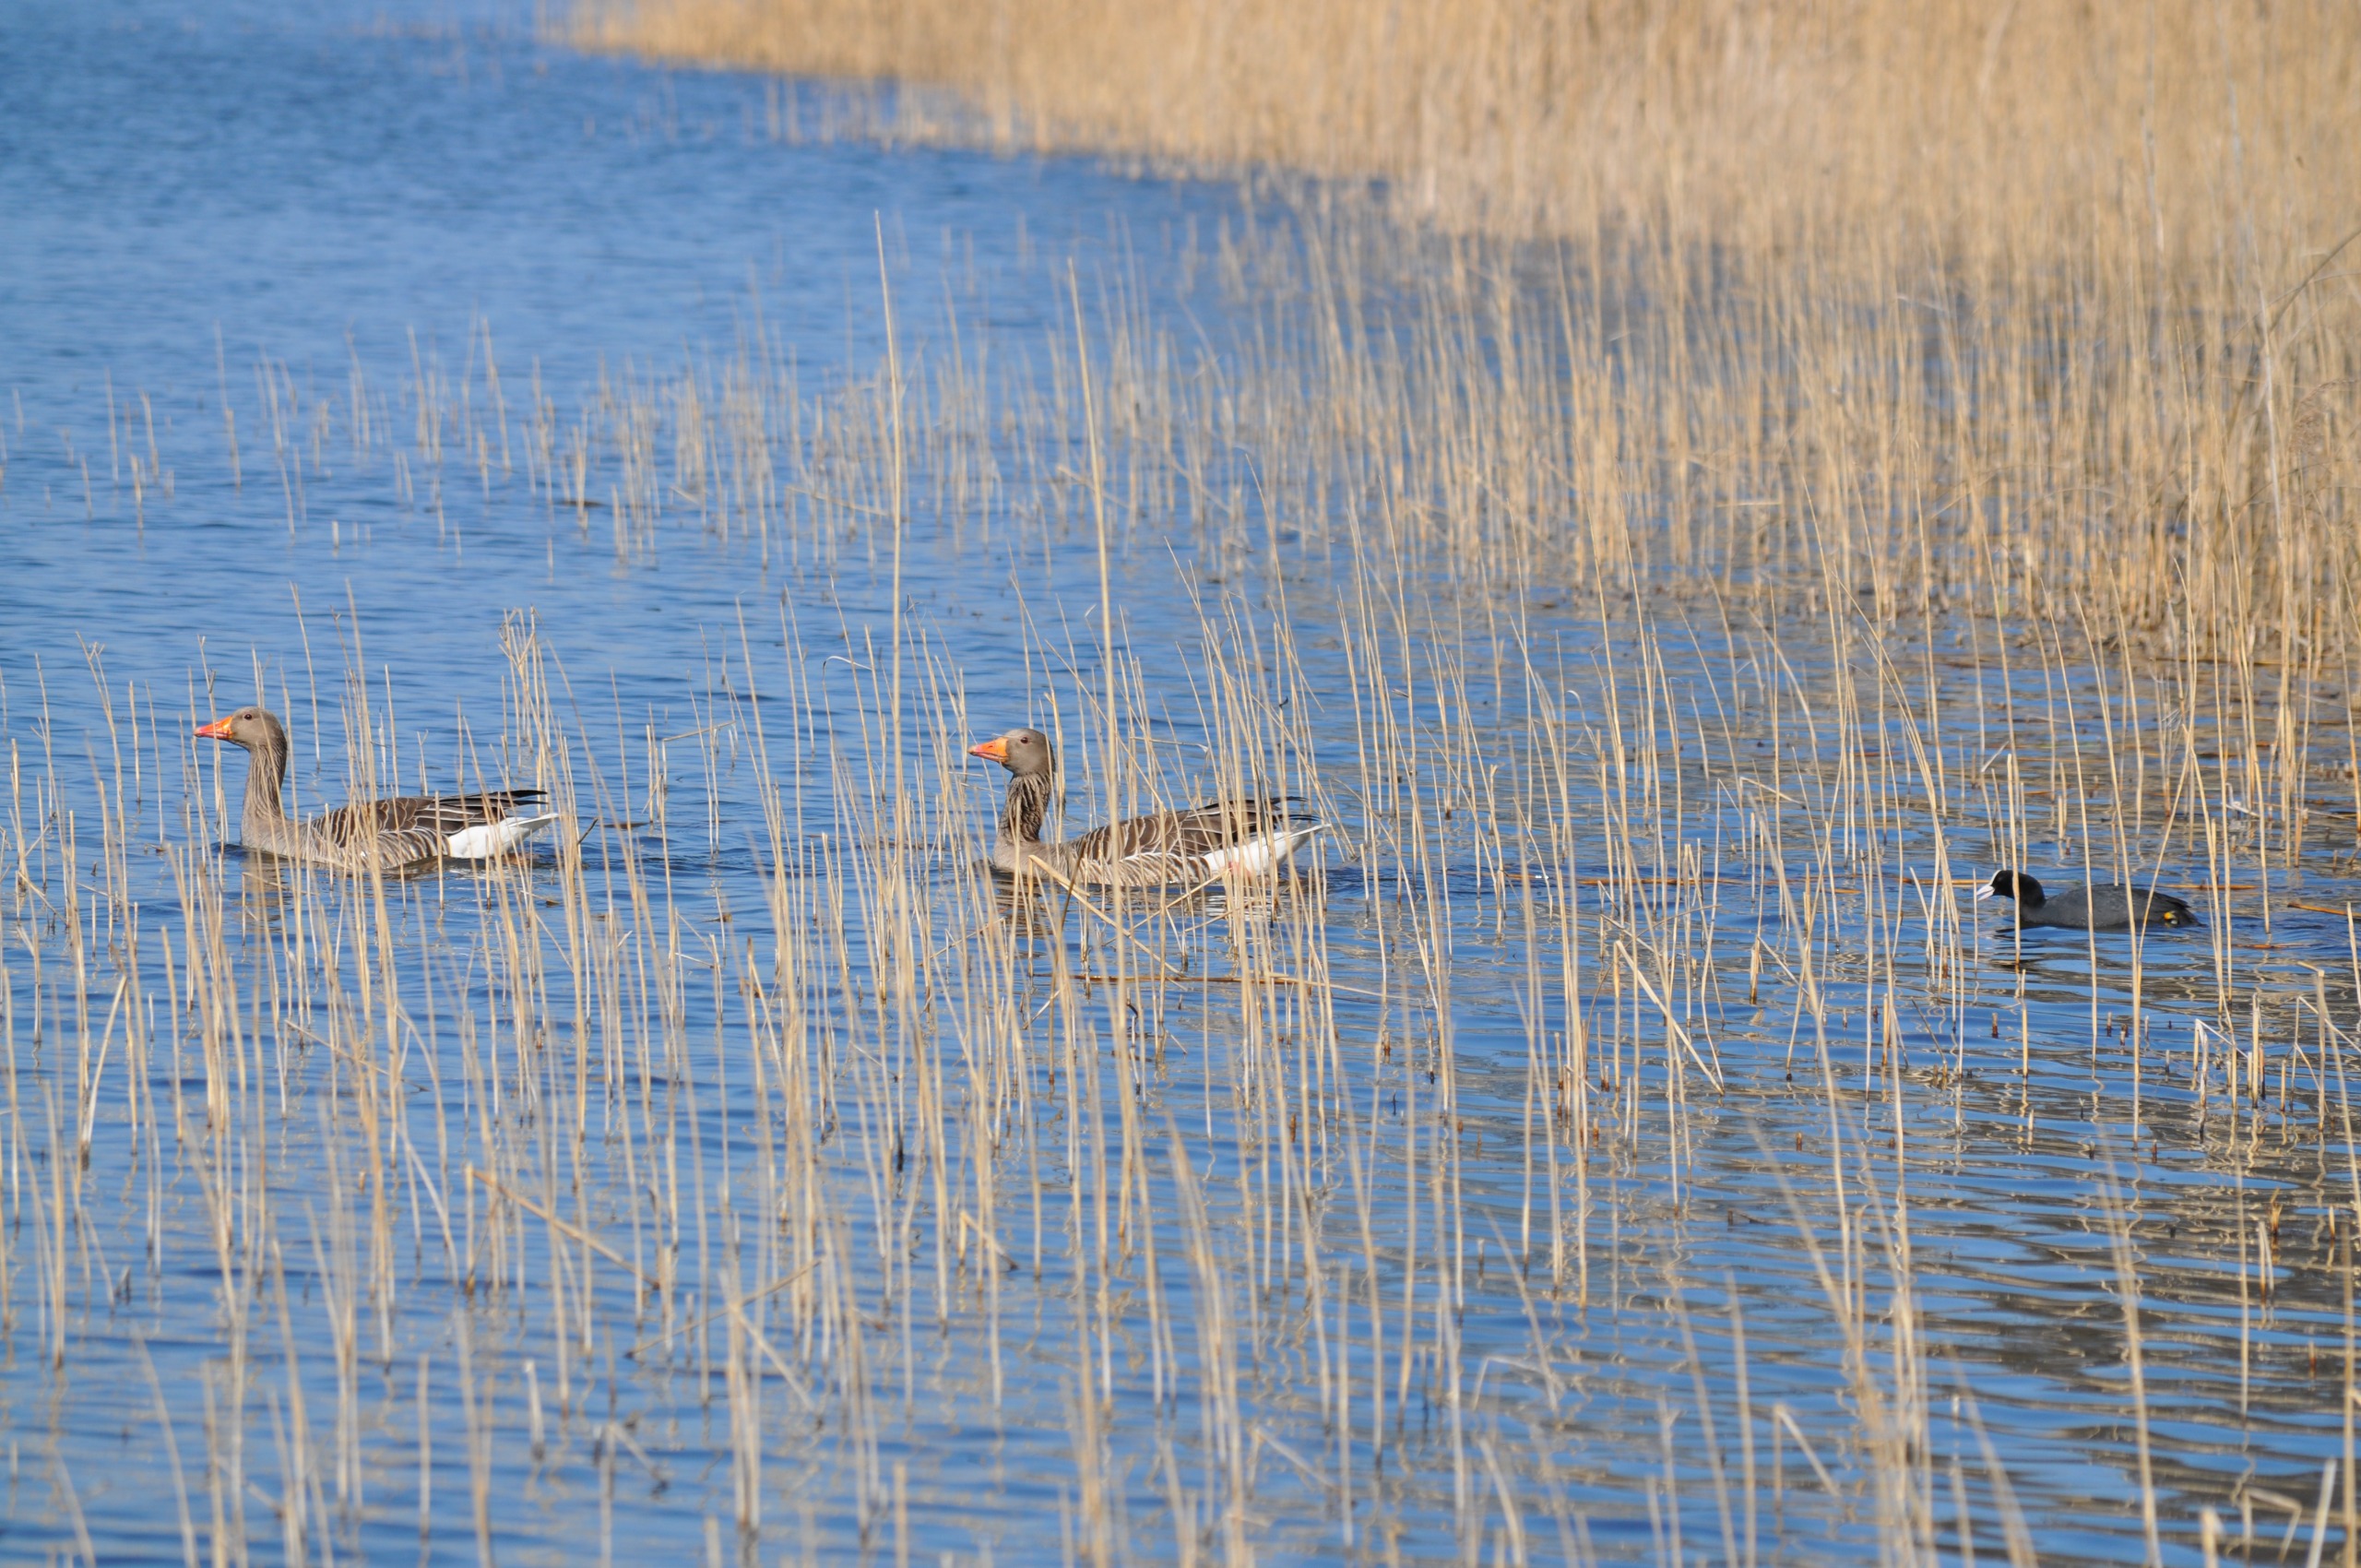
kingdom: Animalia
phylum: Chordata
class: Aves
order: Anseriformes
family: Anatidae
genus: Anser
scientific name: Anser anser
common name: Grågås
